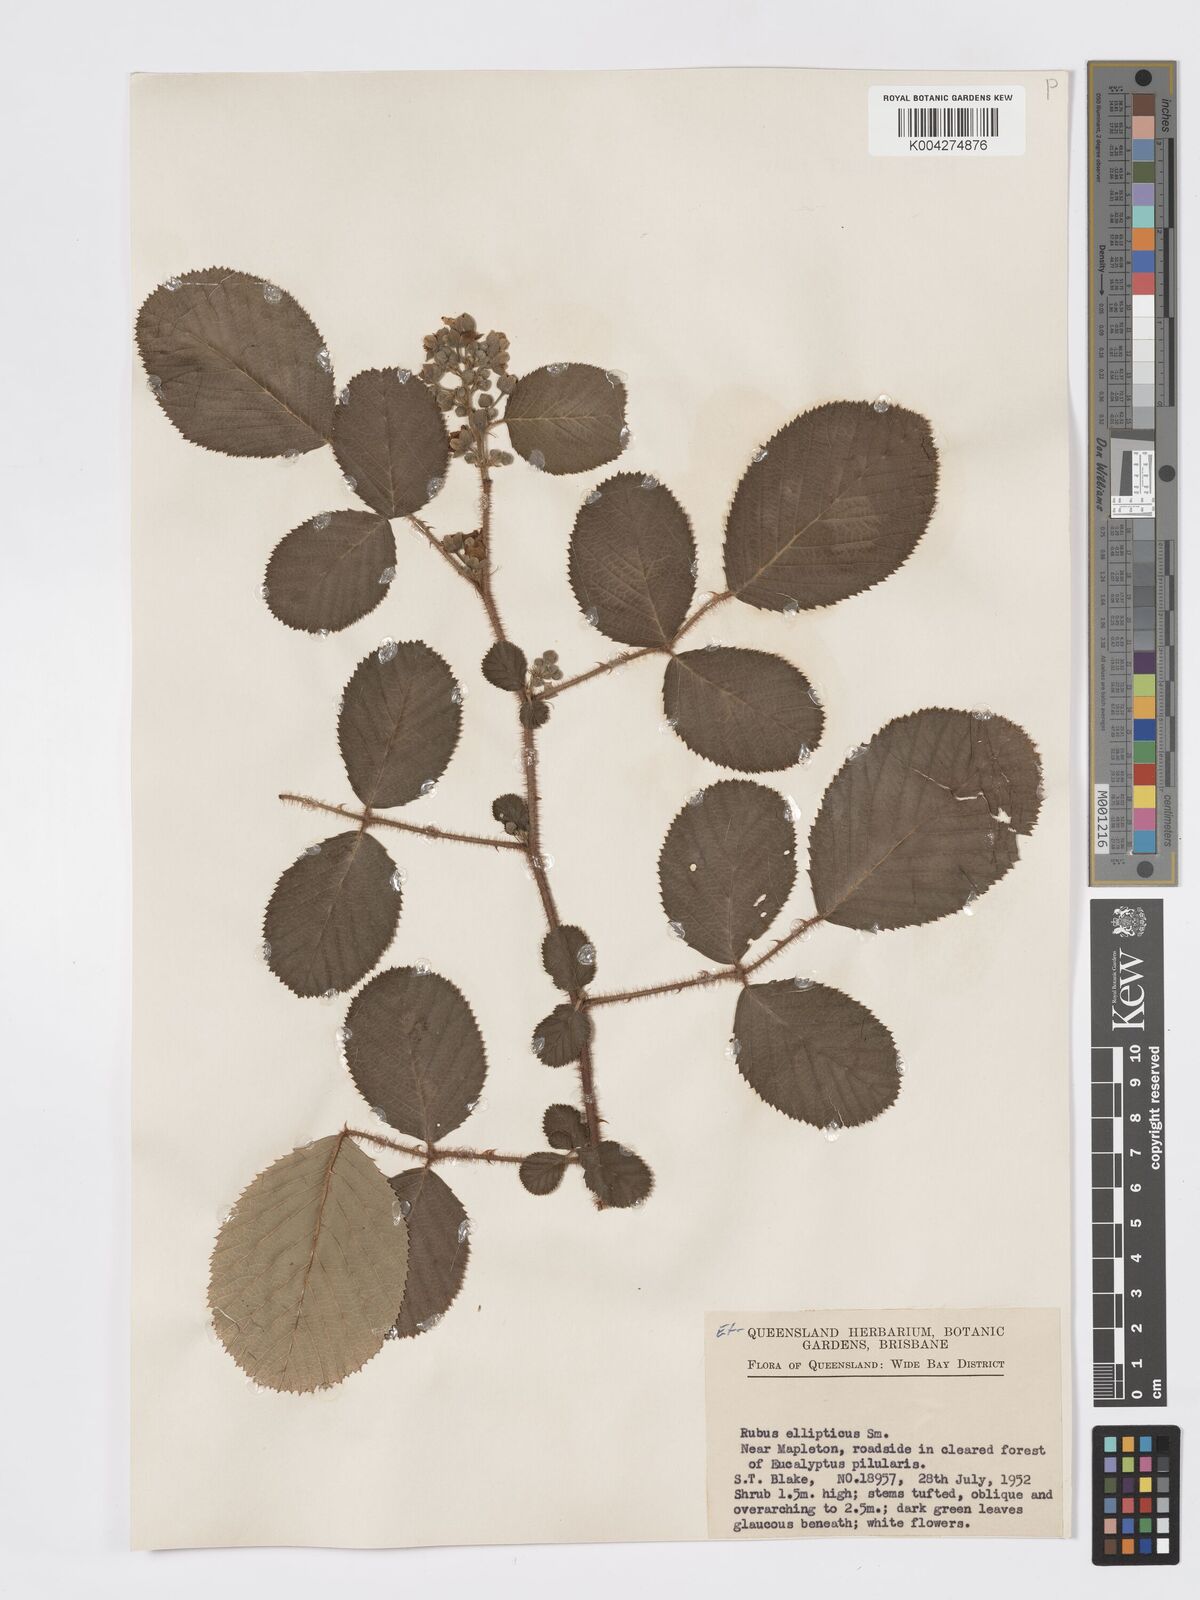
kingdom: Plantae
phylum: Tracheophyta
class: Magnoliopsida
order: Rosales
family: Rosaceae
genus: Rubus
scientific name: Rubus ellipticus
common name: Cheeseberry
